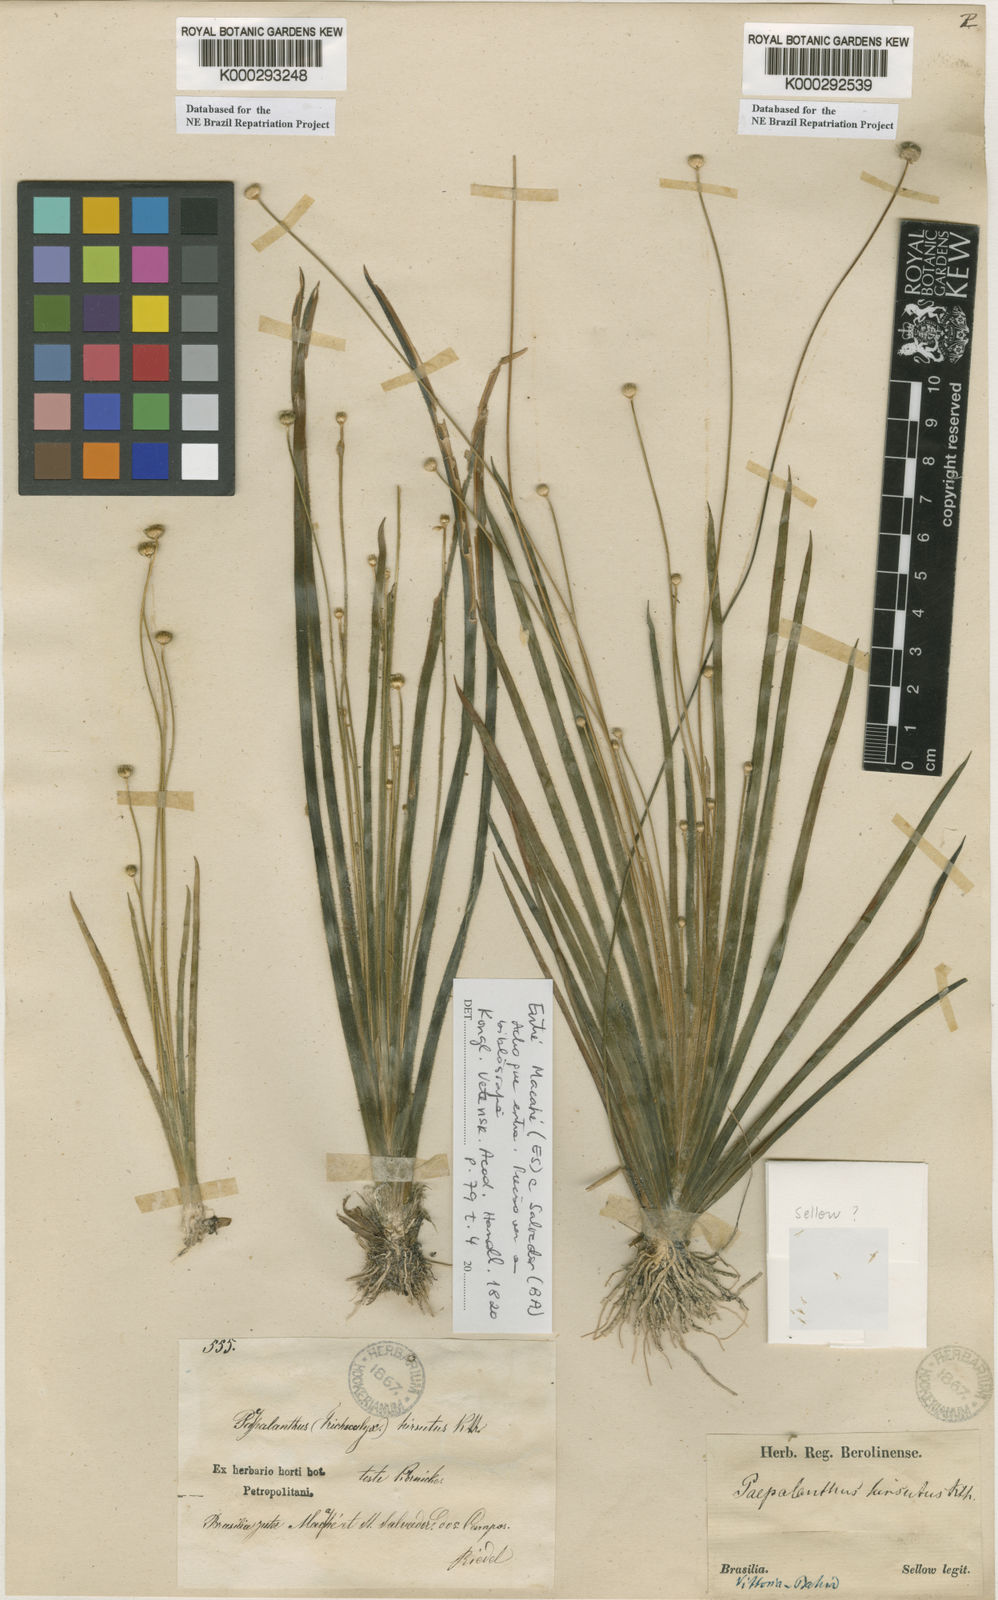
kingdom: Plantae
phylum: Tracheophyta
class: Liliopsida
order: Poales
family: Eriocaulaceae
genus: Leiothrix
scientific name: Leiothrix hirsuta
